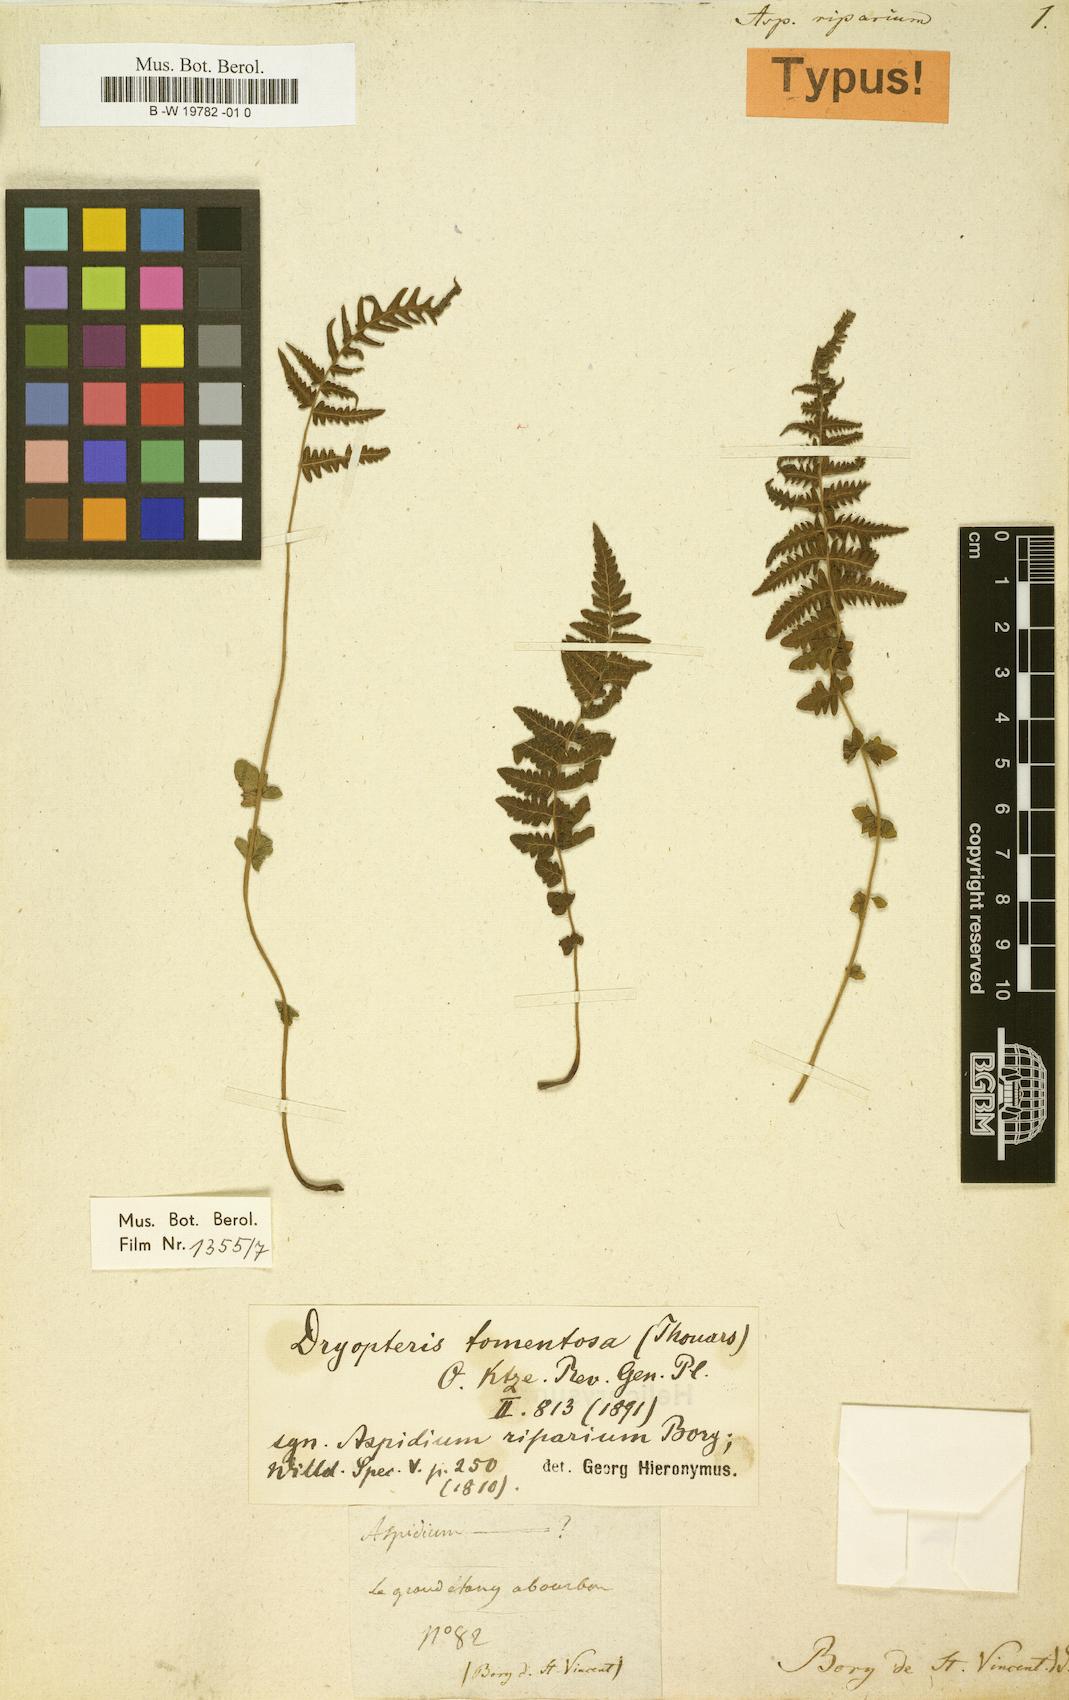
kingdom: Plantae
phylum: Tracheophyta
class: Polypodiopsida
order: Polypodiales
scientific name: Polypodiales
